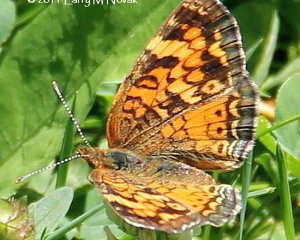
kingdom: Animalia
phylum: Arthropoda
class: Insecta
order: Lepidoptera
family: Nymphalidae
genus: Phyciodes
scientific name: Phyciodes tharos
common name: Northern Crescent
